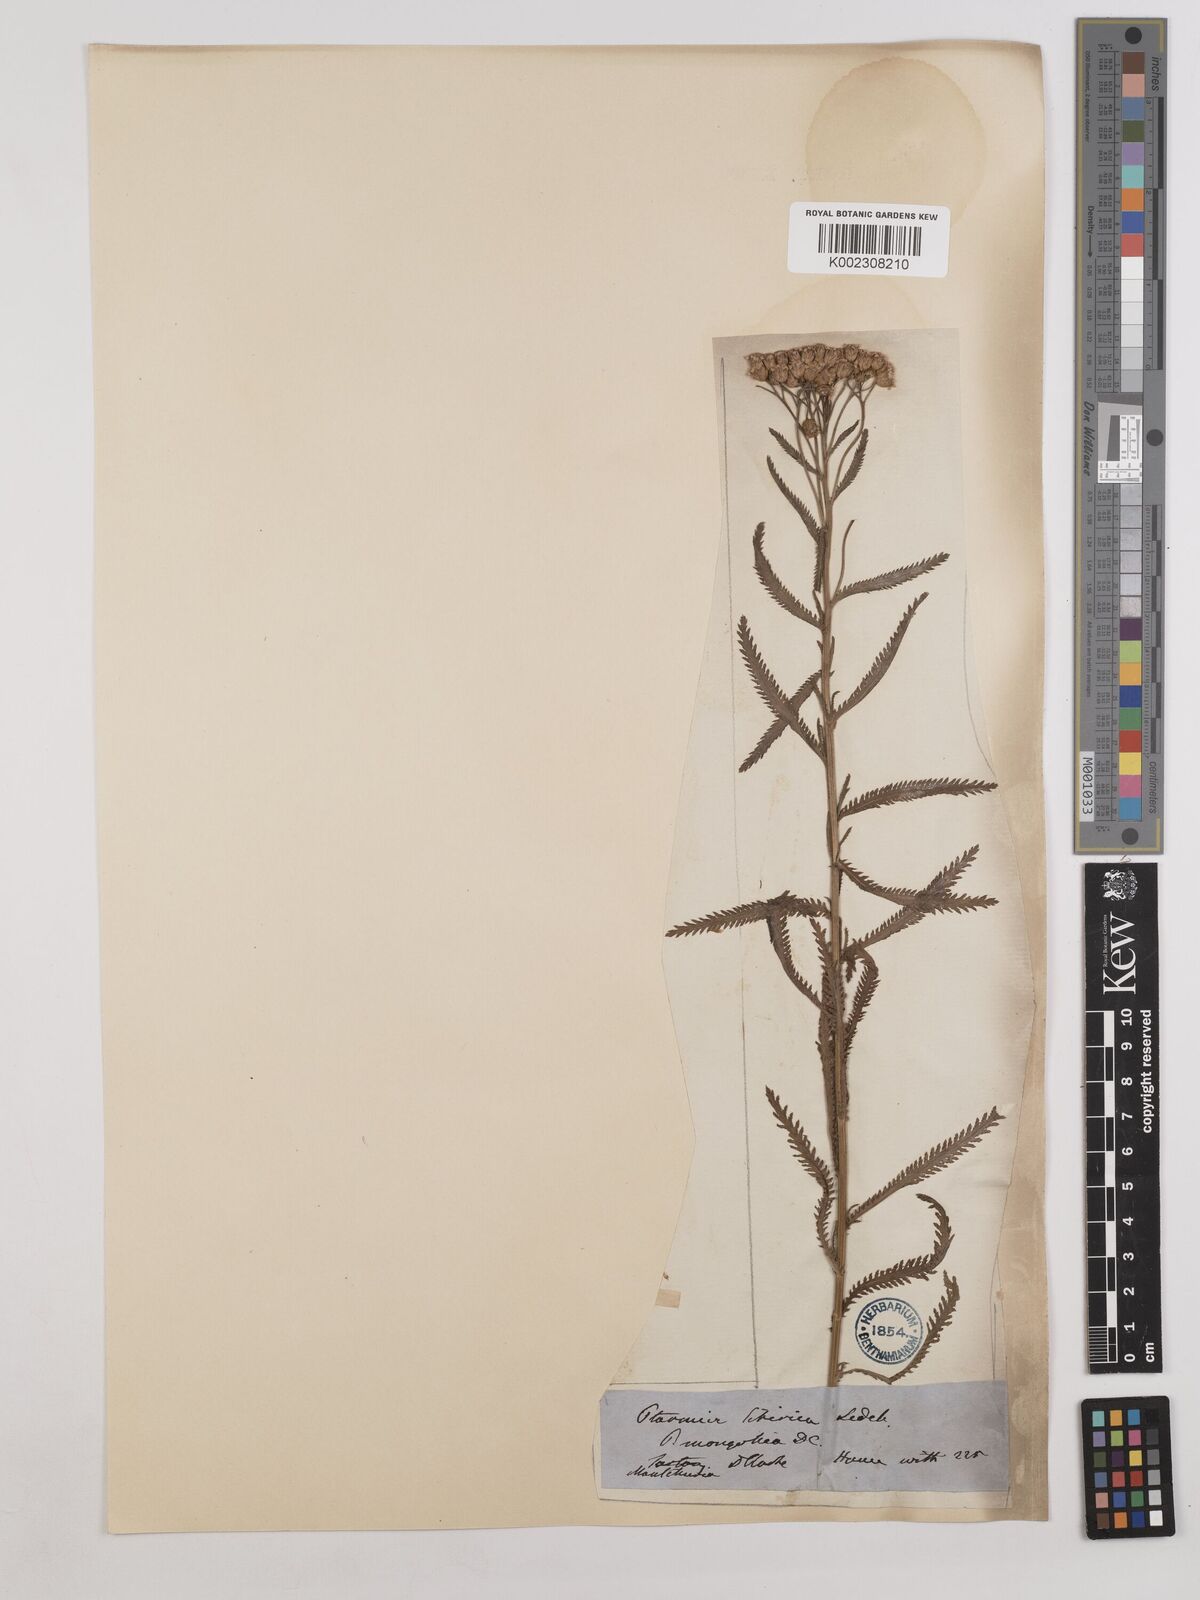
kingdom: Plantae
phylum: Tracheophyta
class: Magnoliopsida
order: Asterales
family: Asteraceae
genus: Achillea
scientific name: Achillea alpina
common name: Siberian yarrow
